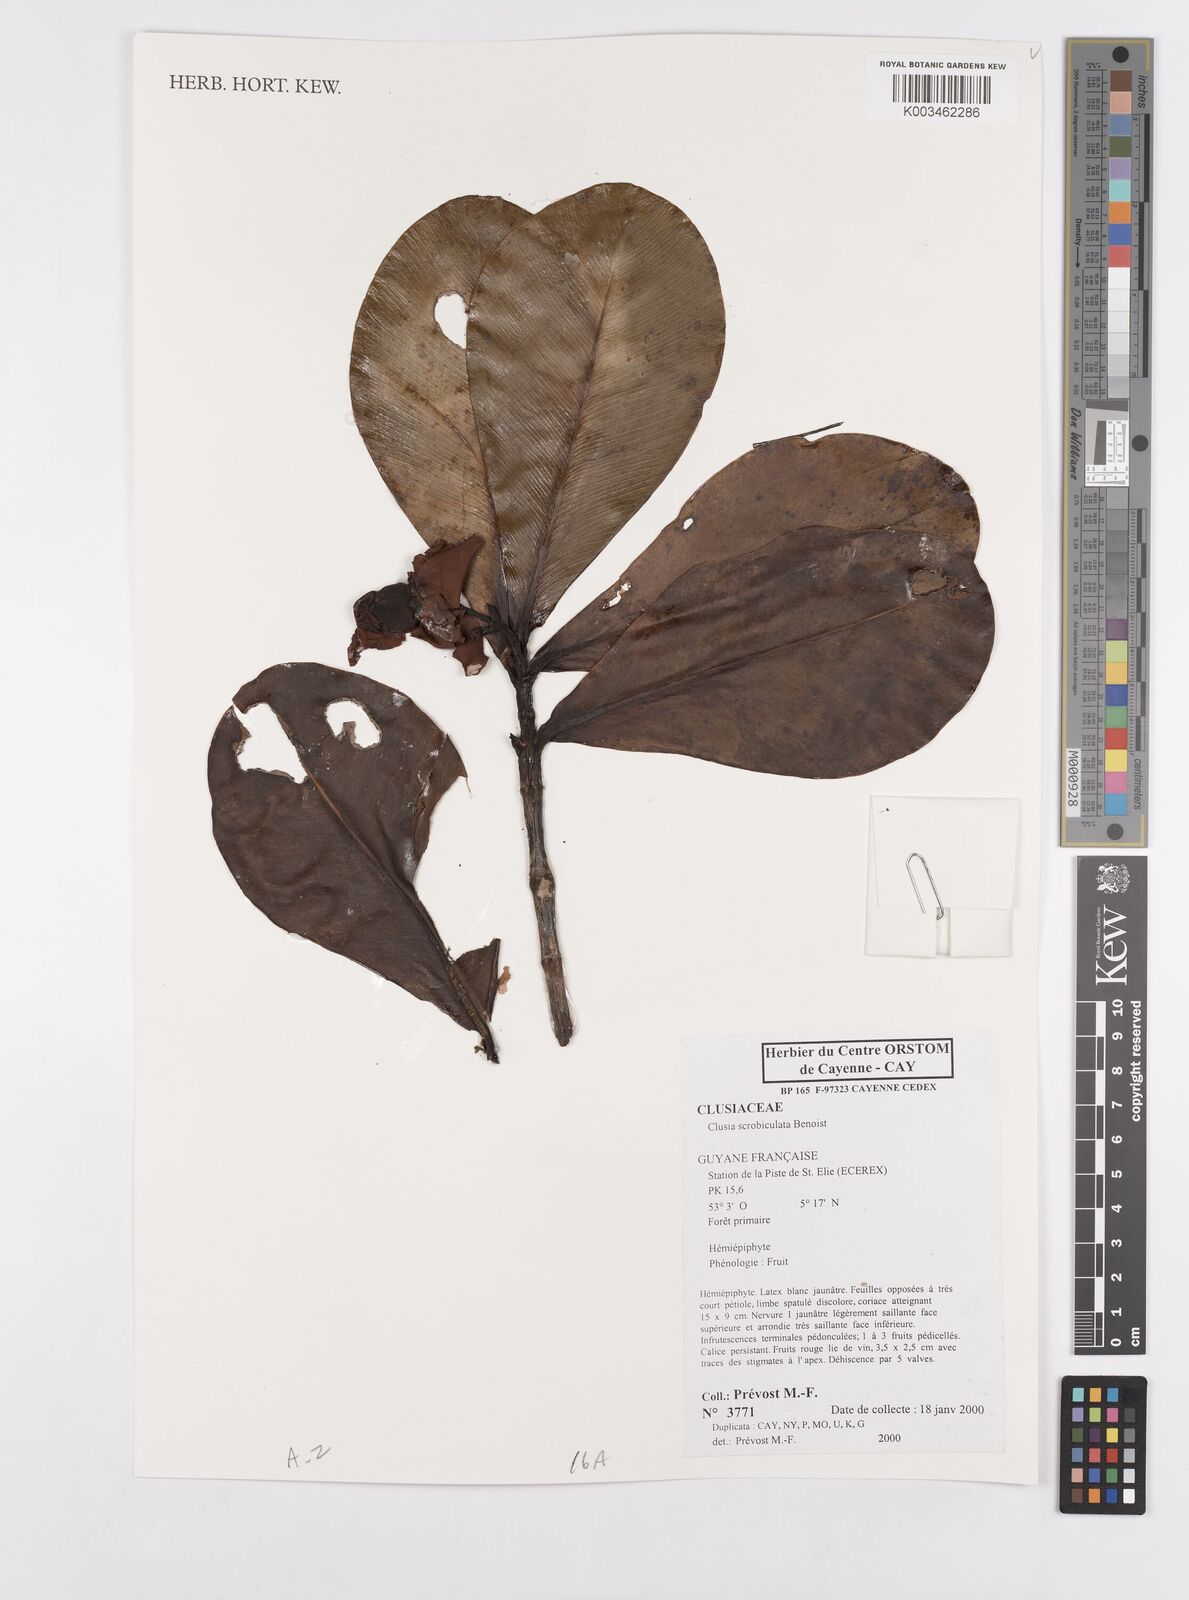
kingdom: Plantae
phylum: Tracheophyta
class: Magnoliopsida
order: Malpighiales
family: Clusiaceae
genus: Clusia
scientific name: Clusia scrobiculata
